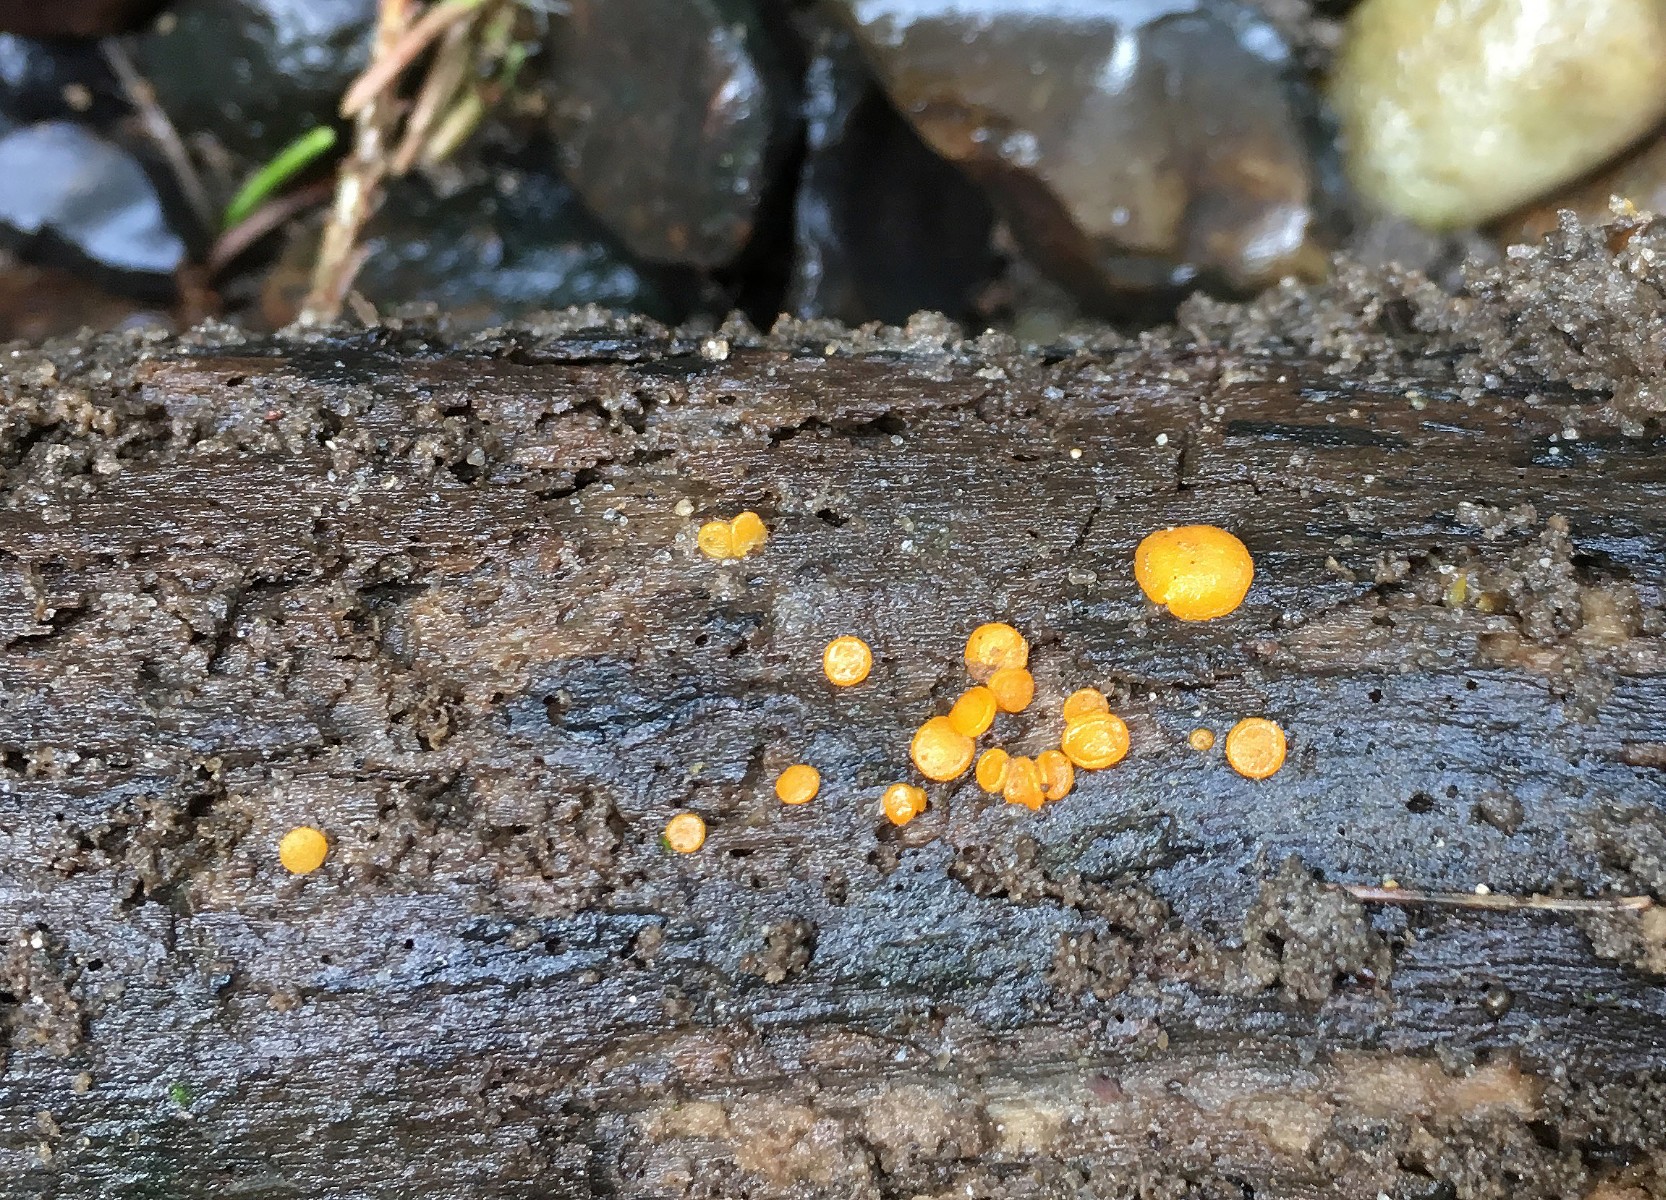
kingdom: Fungi
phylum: Ascomycota
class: Pezizomycetes
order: Pezizales
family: Pyronemataceae
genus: Miladina
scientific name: Miladina lecithina
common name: vandbæger
